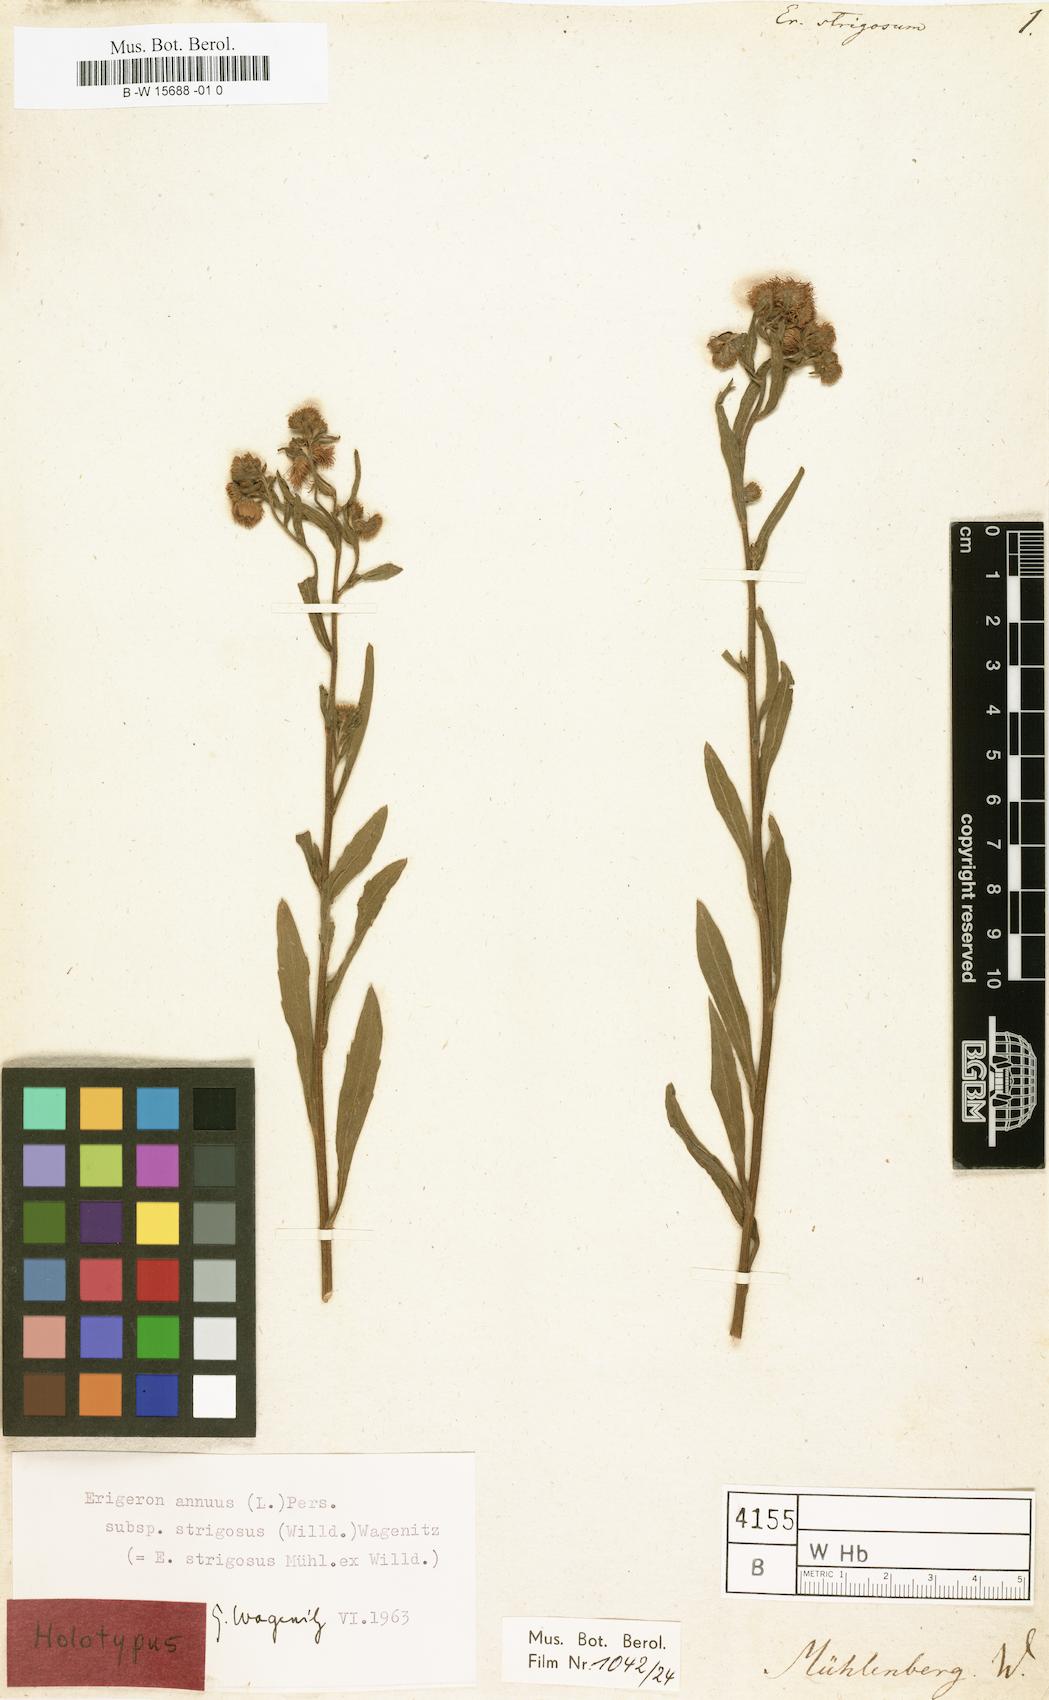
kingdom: Plantae
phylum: Tracheophyta
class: Magnoliopsida
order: Asterales
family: Asteraceae
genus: Erigeron
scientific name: Erigeron strigosus
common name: Common eastern fleabane
